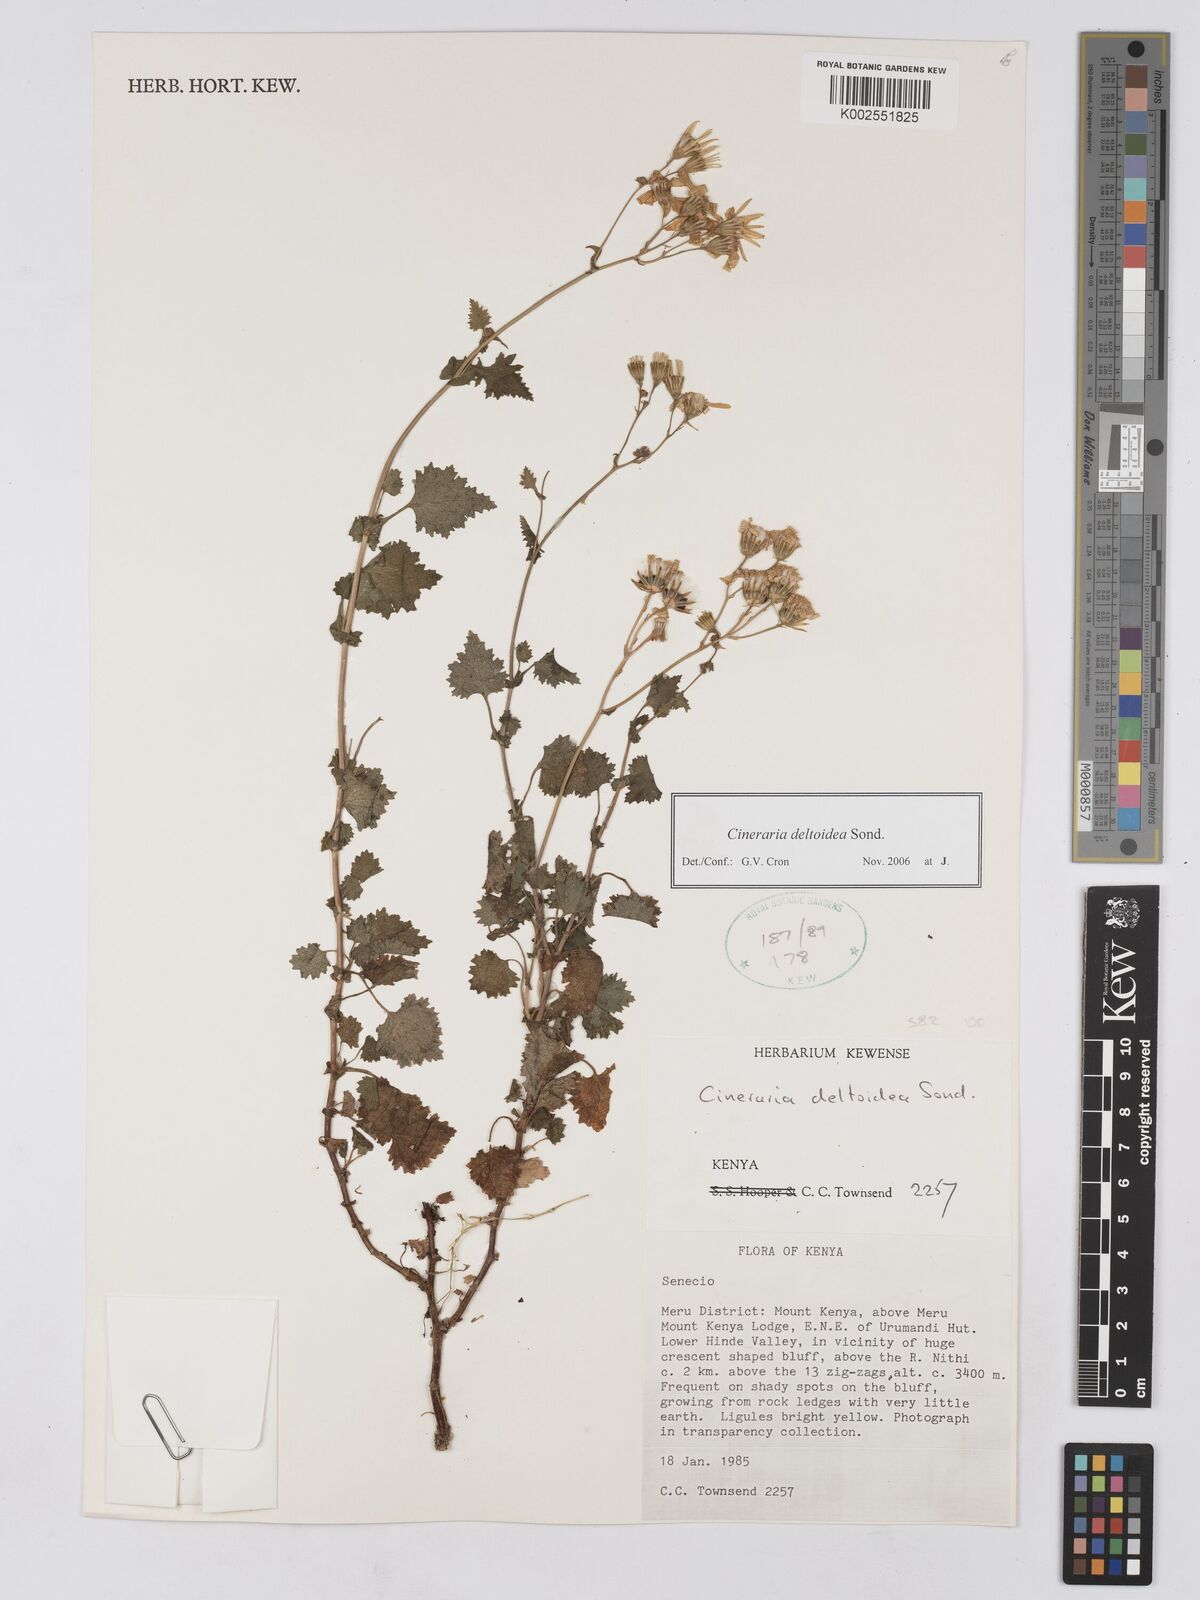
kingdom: Plantae
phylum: Tracheophyta
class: Magnoliopsida
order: Asterales
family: Asteraceae
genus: Cineraria
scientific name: Cineraria deltoidea
